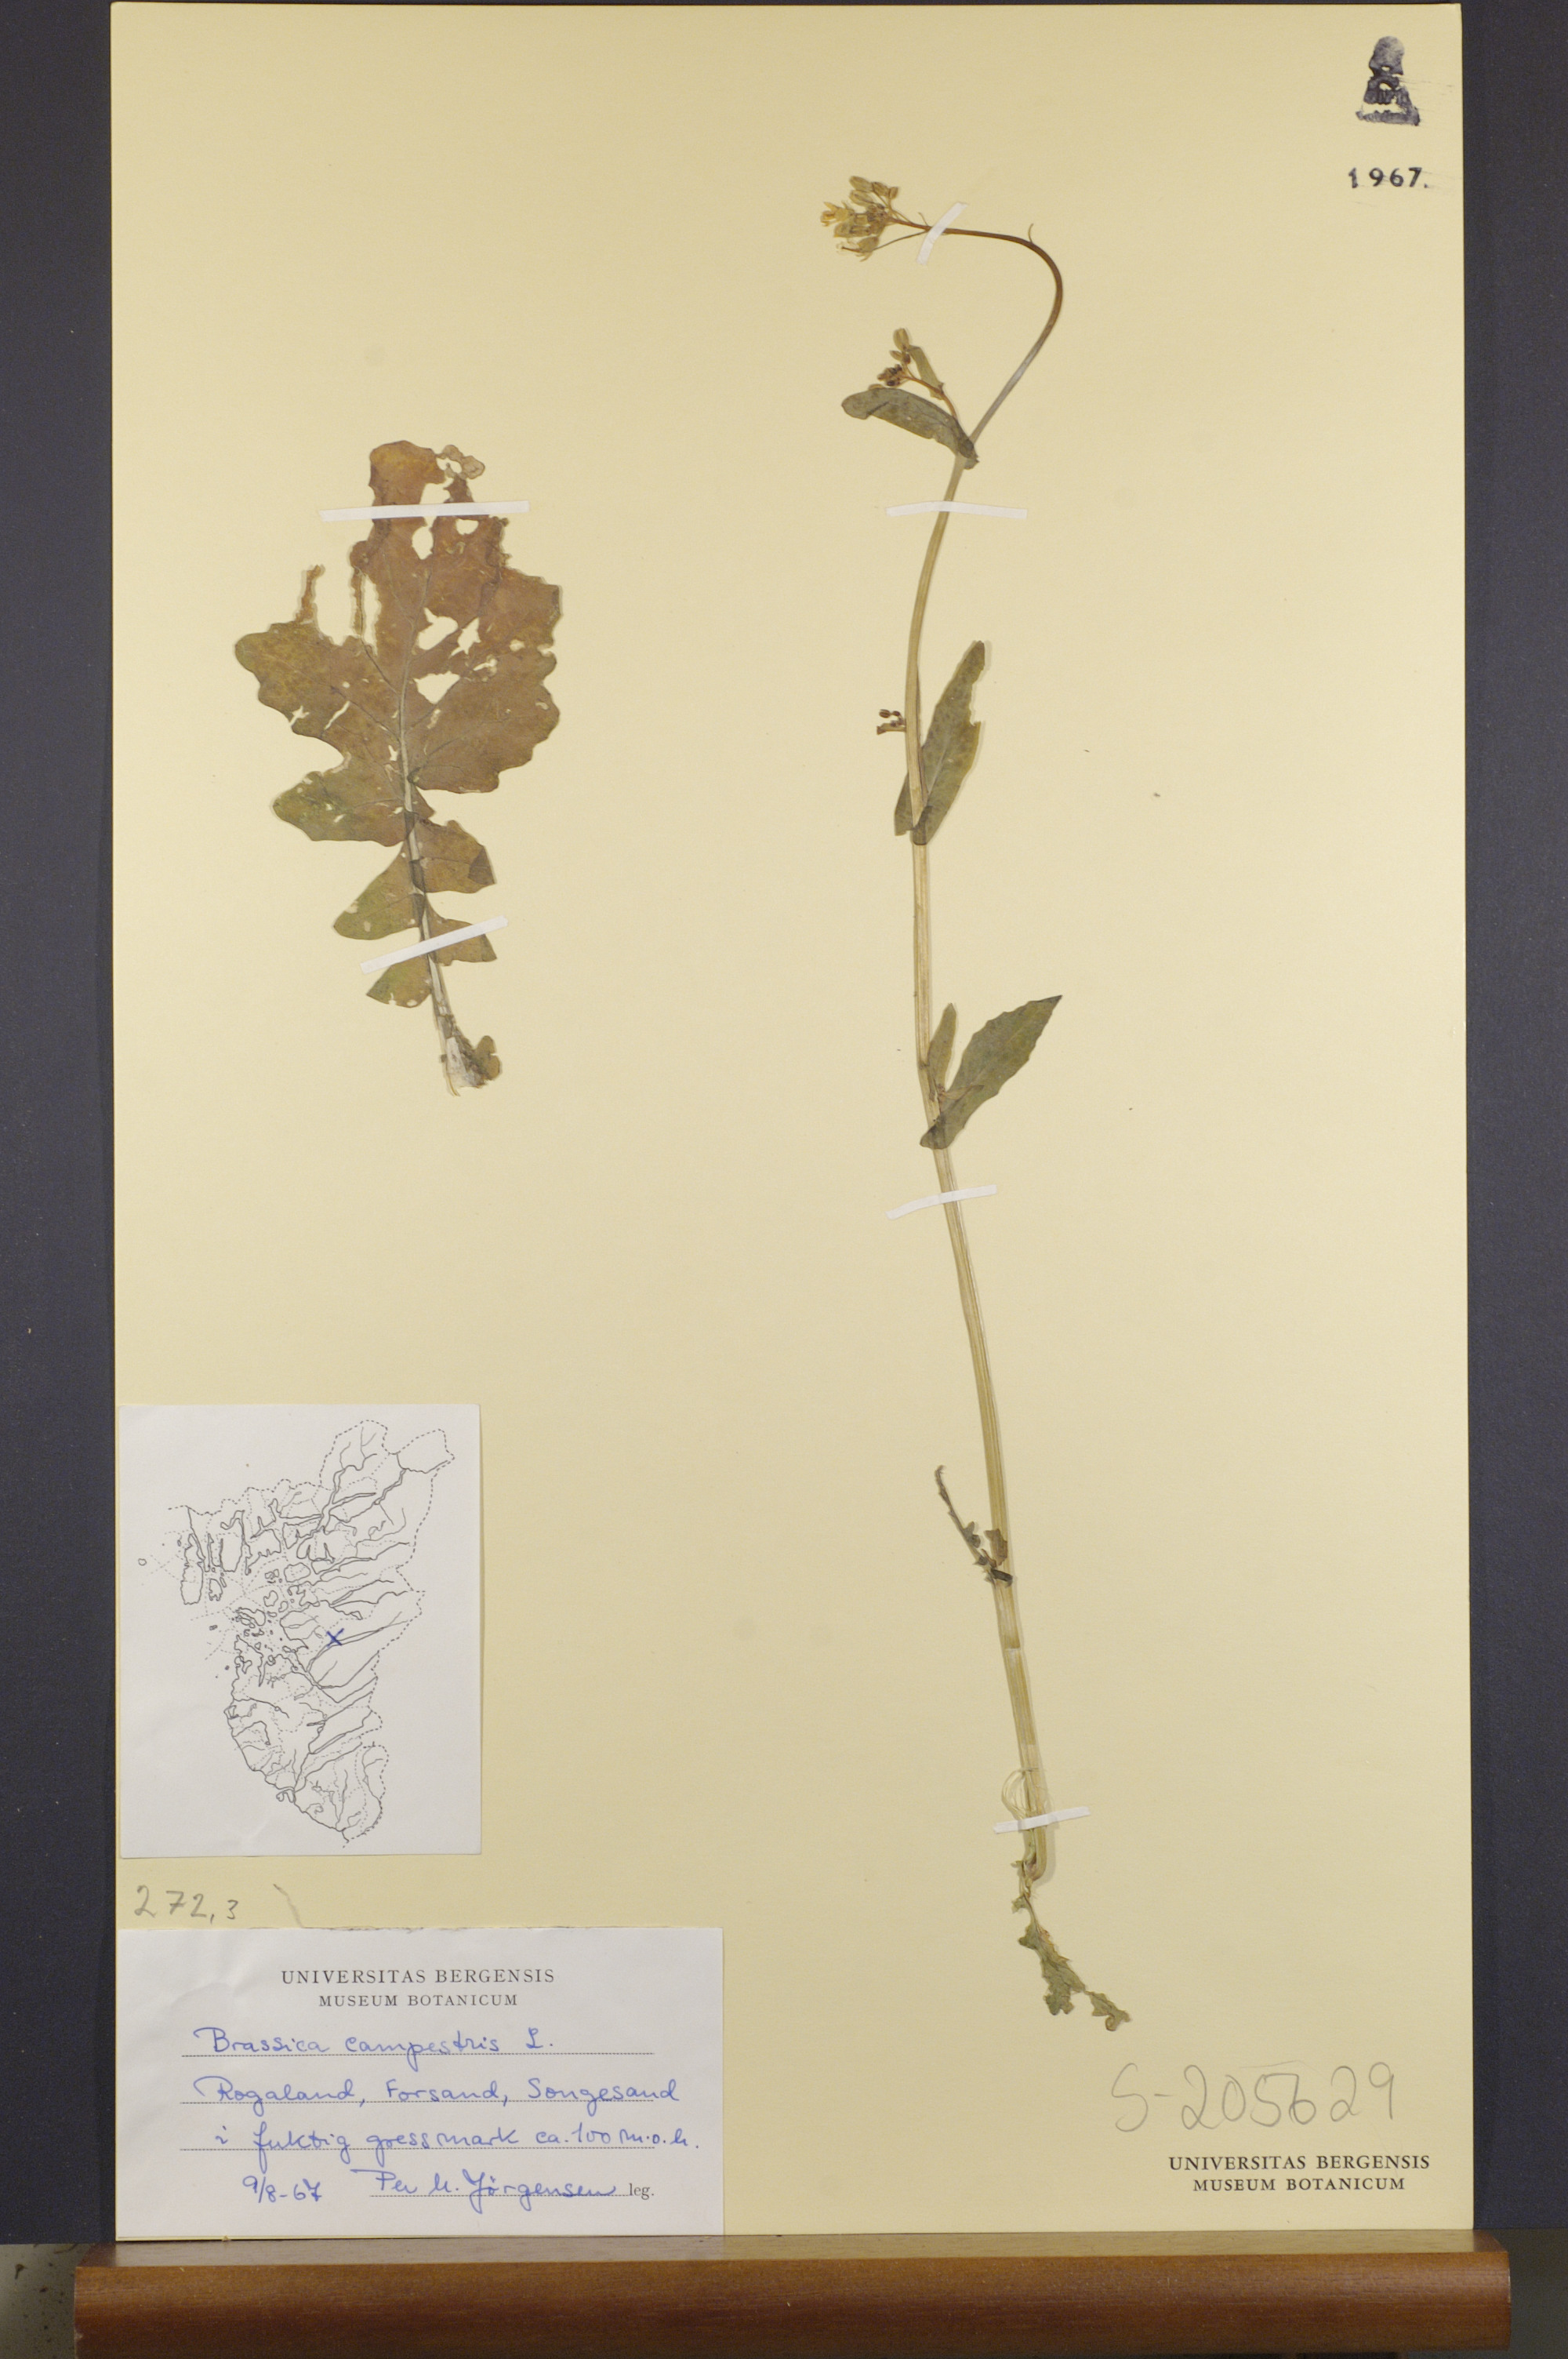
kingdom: Plantae
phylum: Tracheophyta
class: Magnoliopsida
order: Brassicales
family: Brassicaceae
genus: Brassica
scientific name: Brassica rapa
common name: Field mustard
